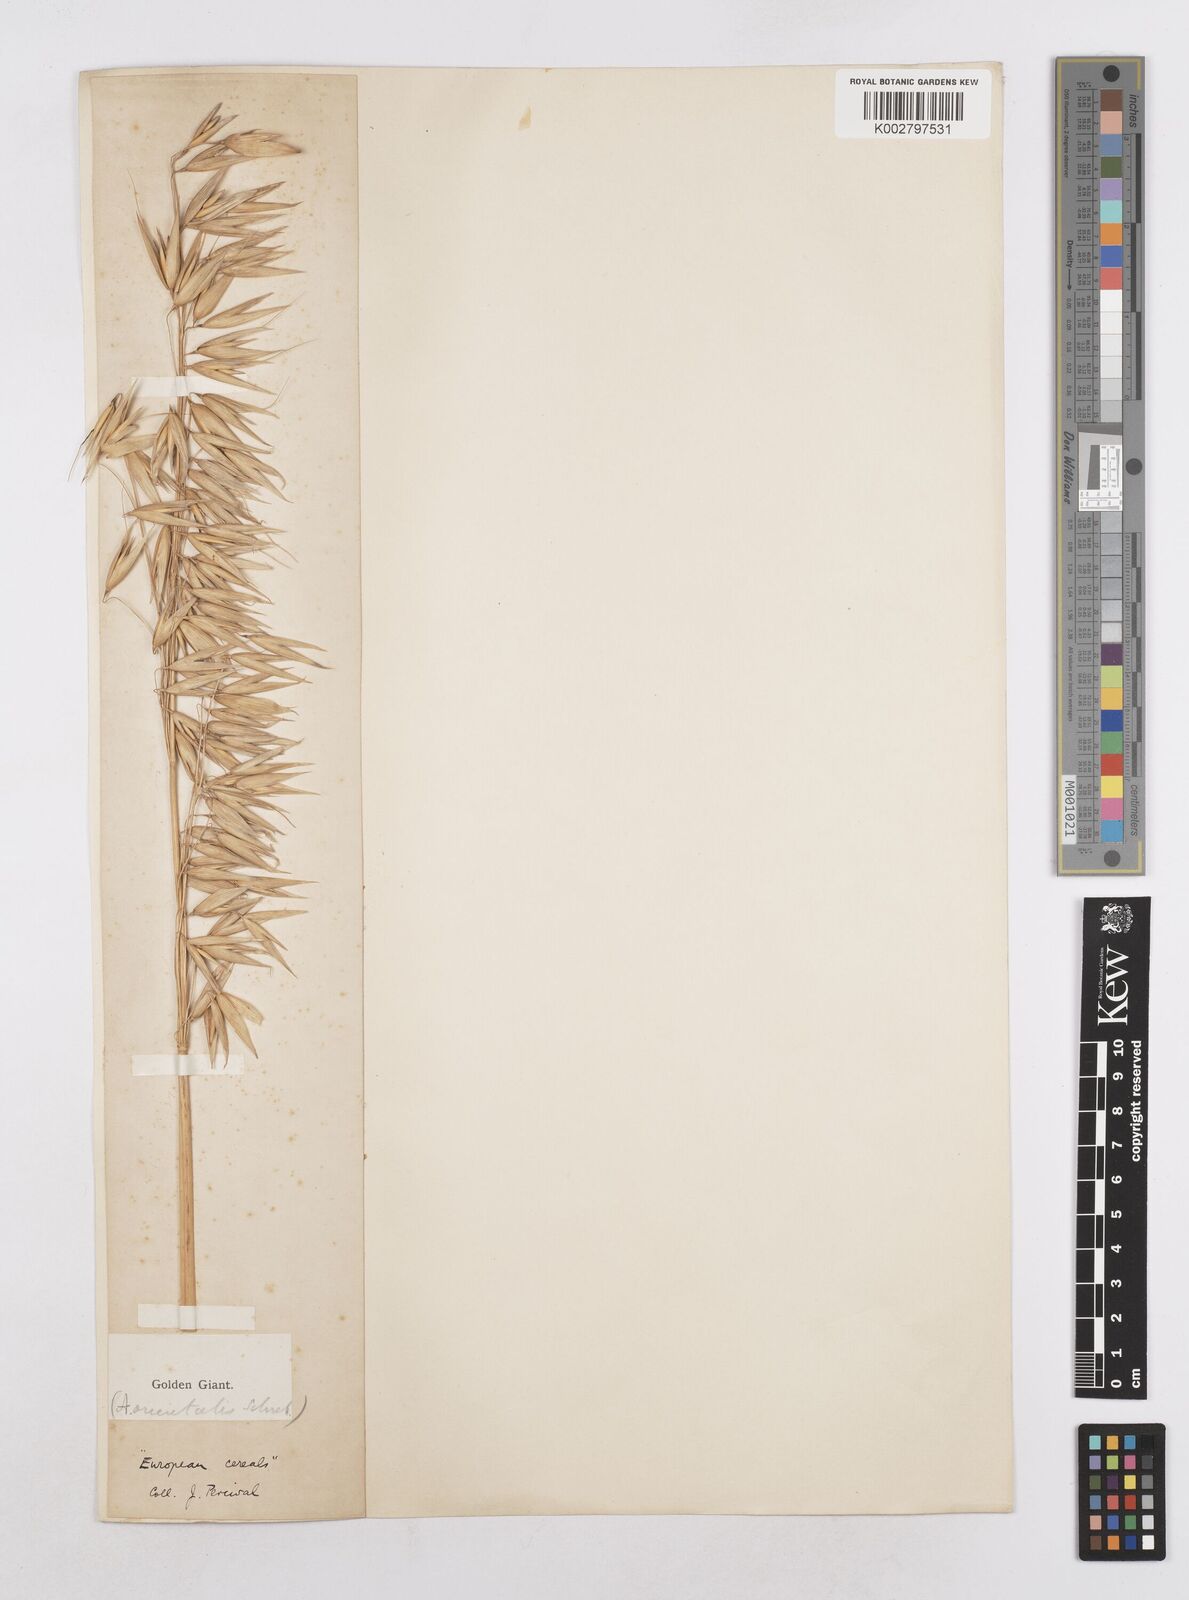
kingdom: Plantae
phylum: Tracheophyta
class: Liliopsida
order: Poales
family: Poaceae
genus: Avena
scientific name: Avena fatua
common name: Wild oat
